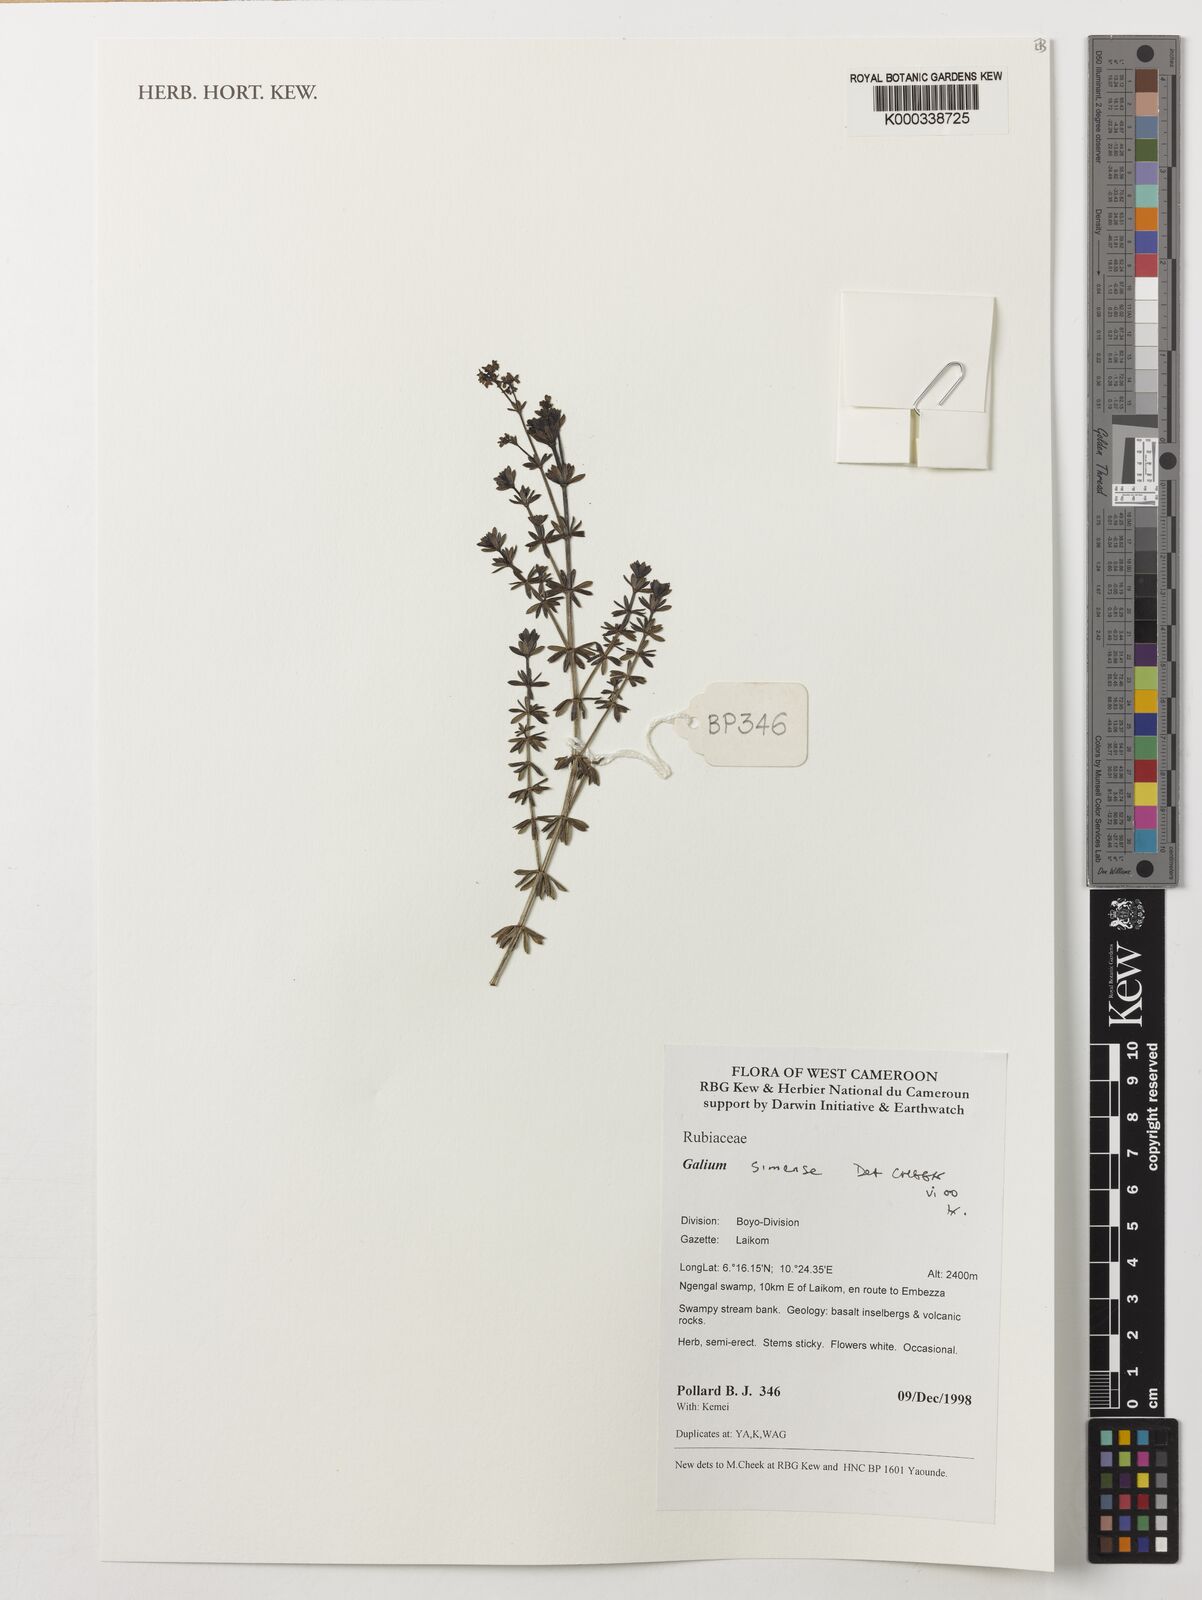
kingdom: Plantae
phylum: Tracheophyta
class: Magnoliopsida
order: Gentianales
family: Rubiaceae
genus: Galium
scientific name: Galium simense
